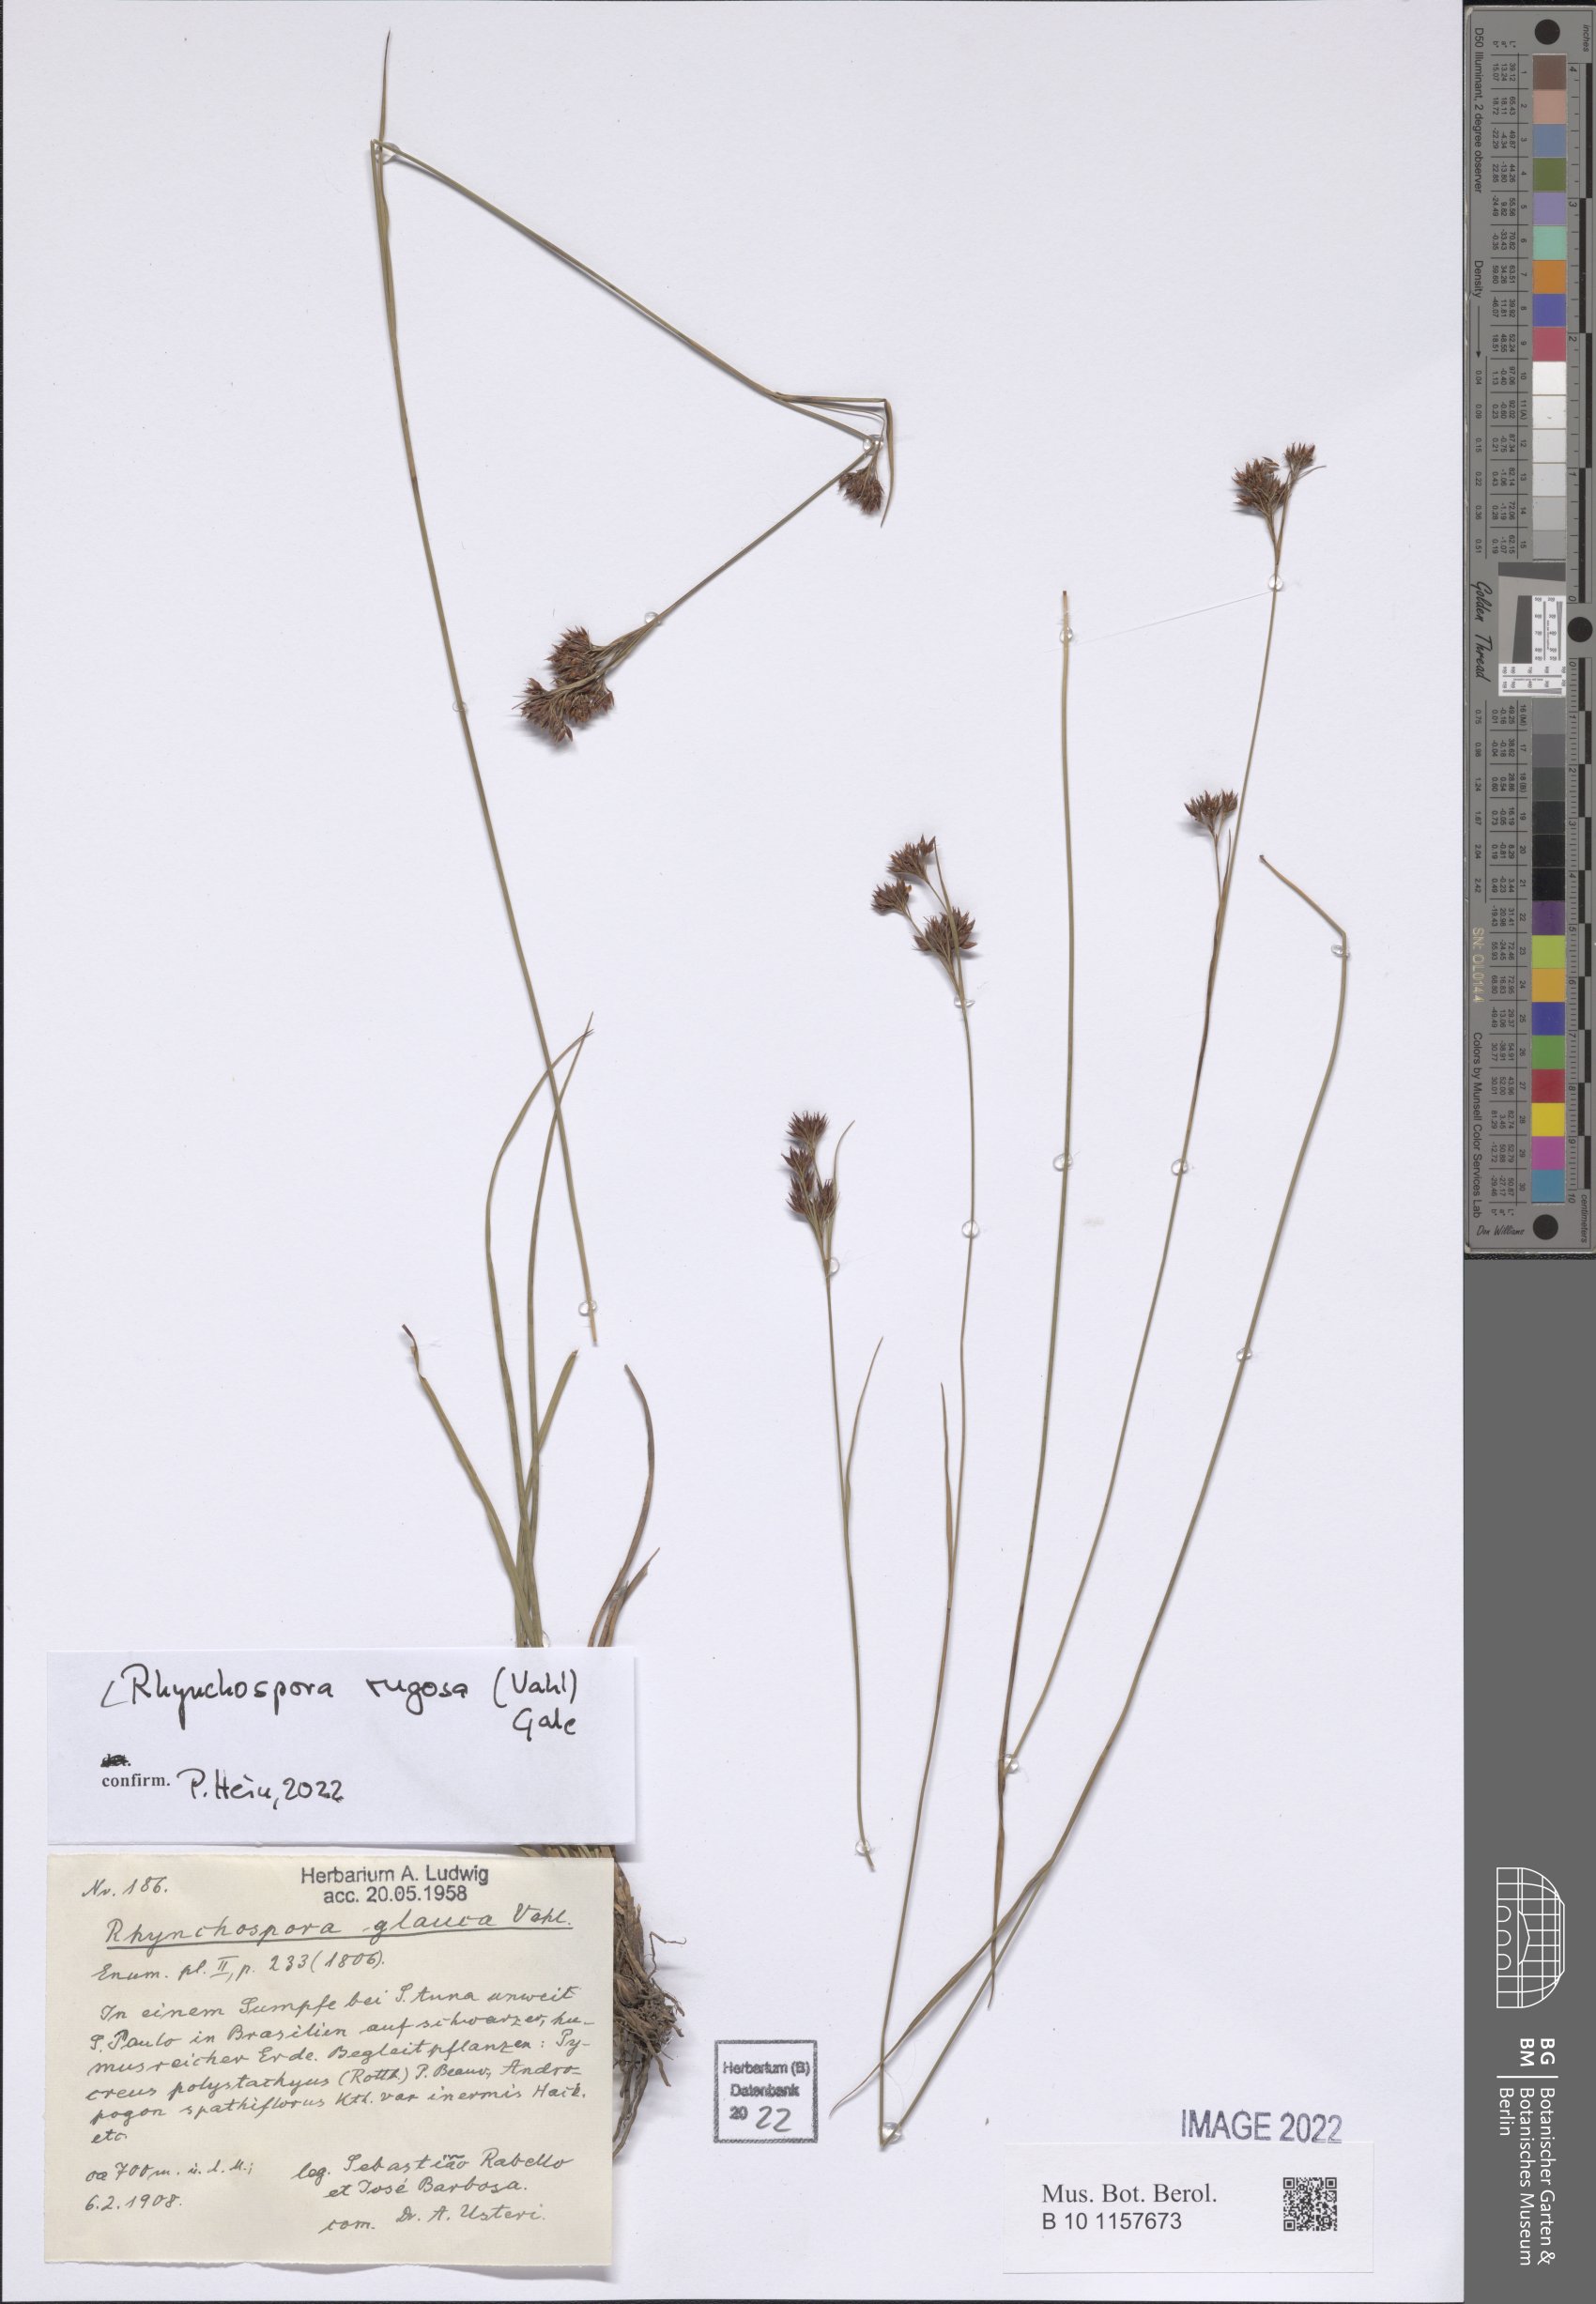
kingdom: Plantae
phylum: Tracheophyta
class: Liliopsida
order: Poales
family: Cyperaceae
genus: Rhynchospora
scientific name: Rhynchospora rugosa
